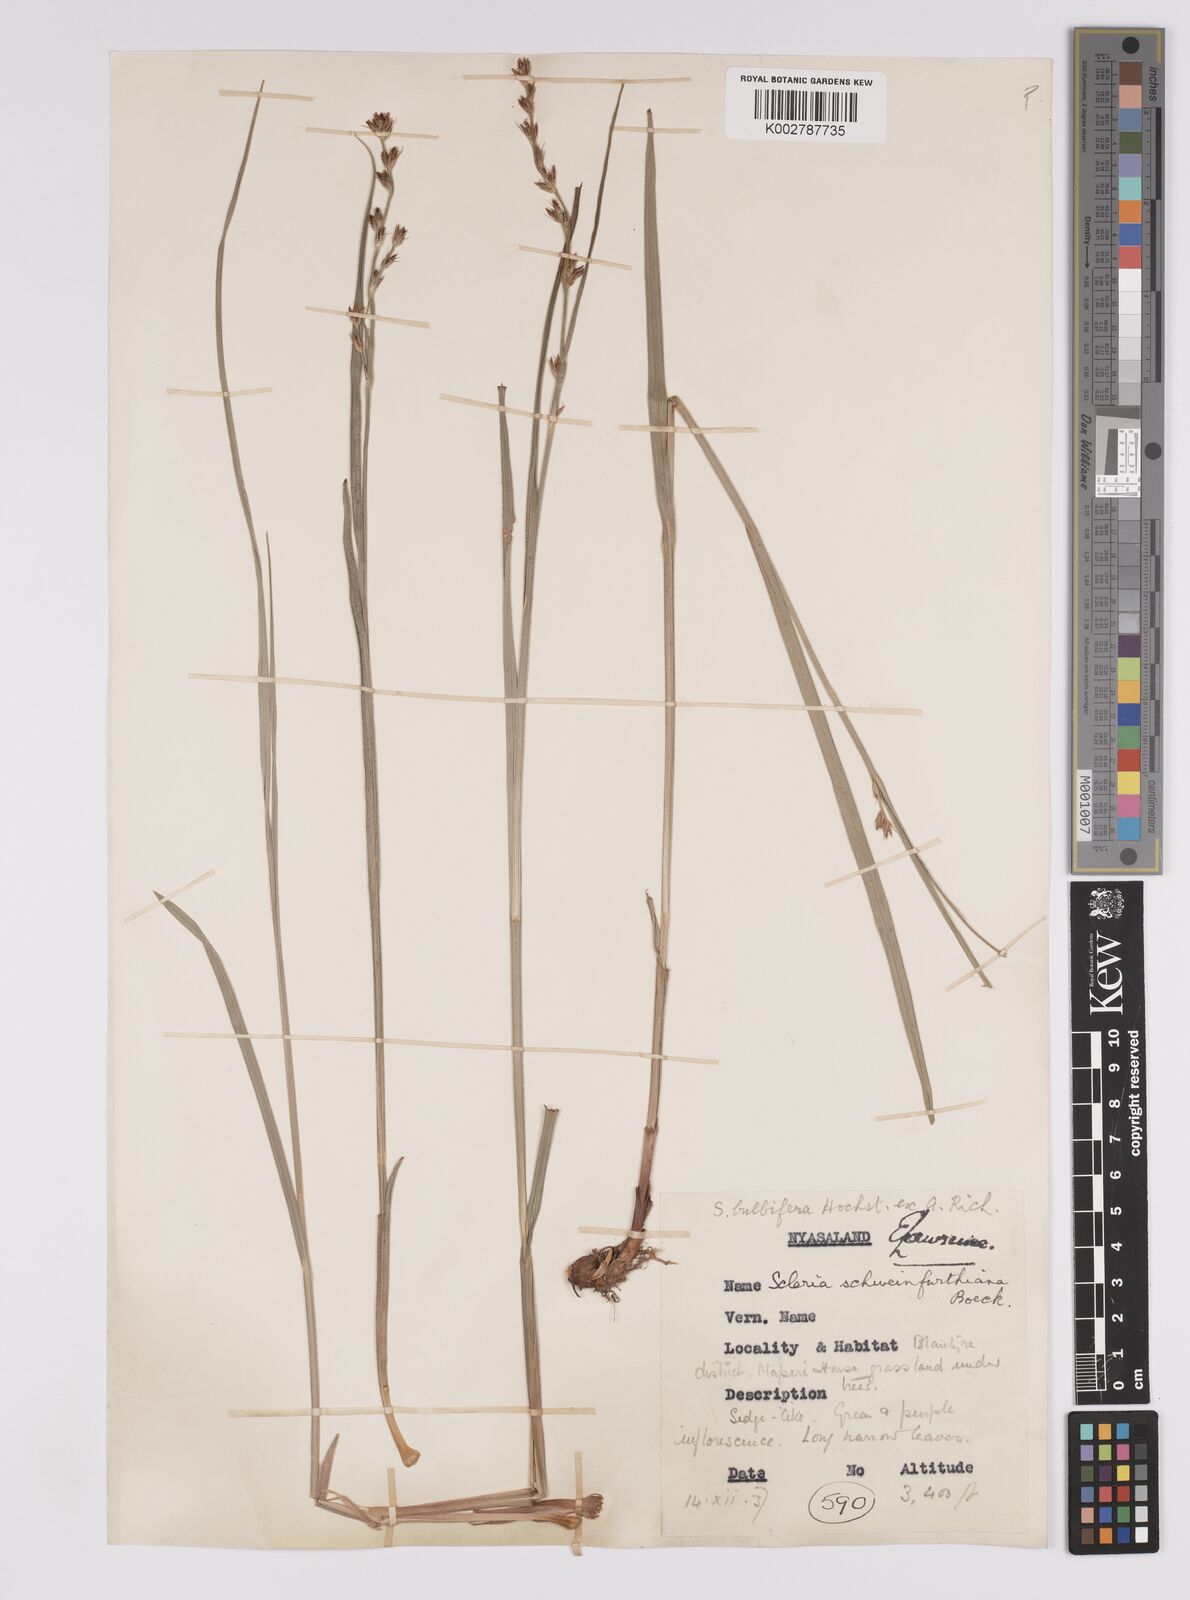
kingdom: Plantae
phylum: Tracheophyta
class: Liliopsida
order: Poales
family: Cyperaceae
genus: Scleria
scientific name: Scleria bulbifera
